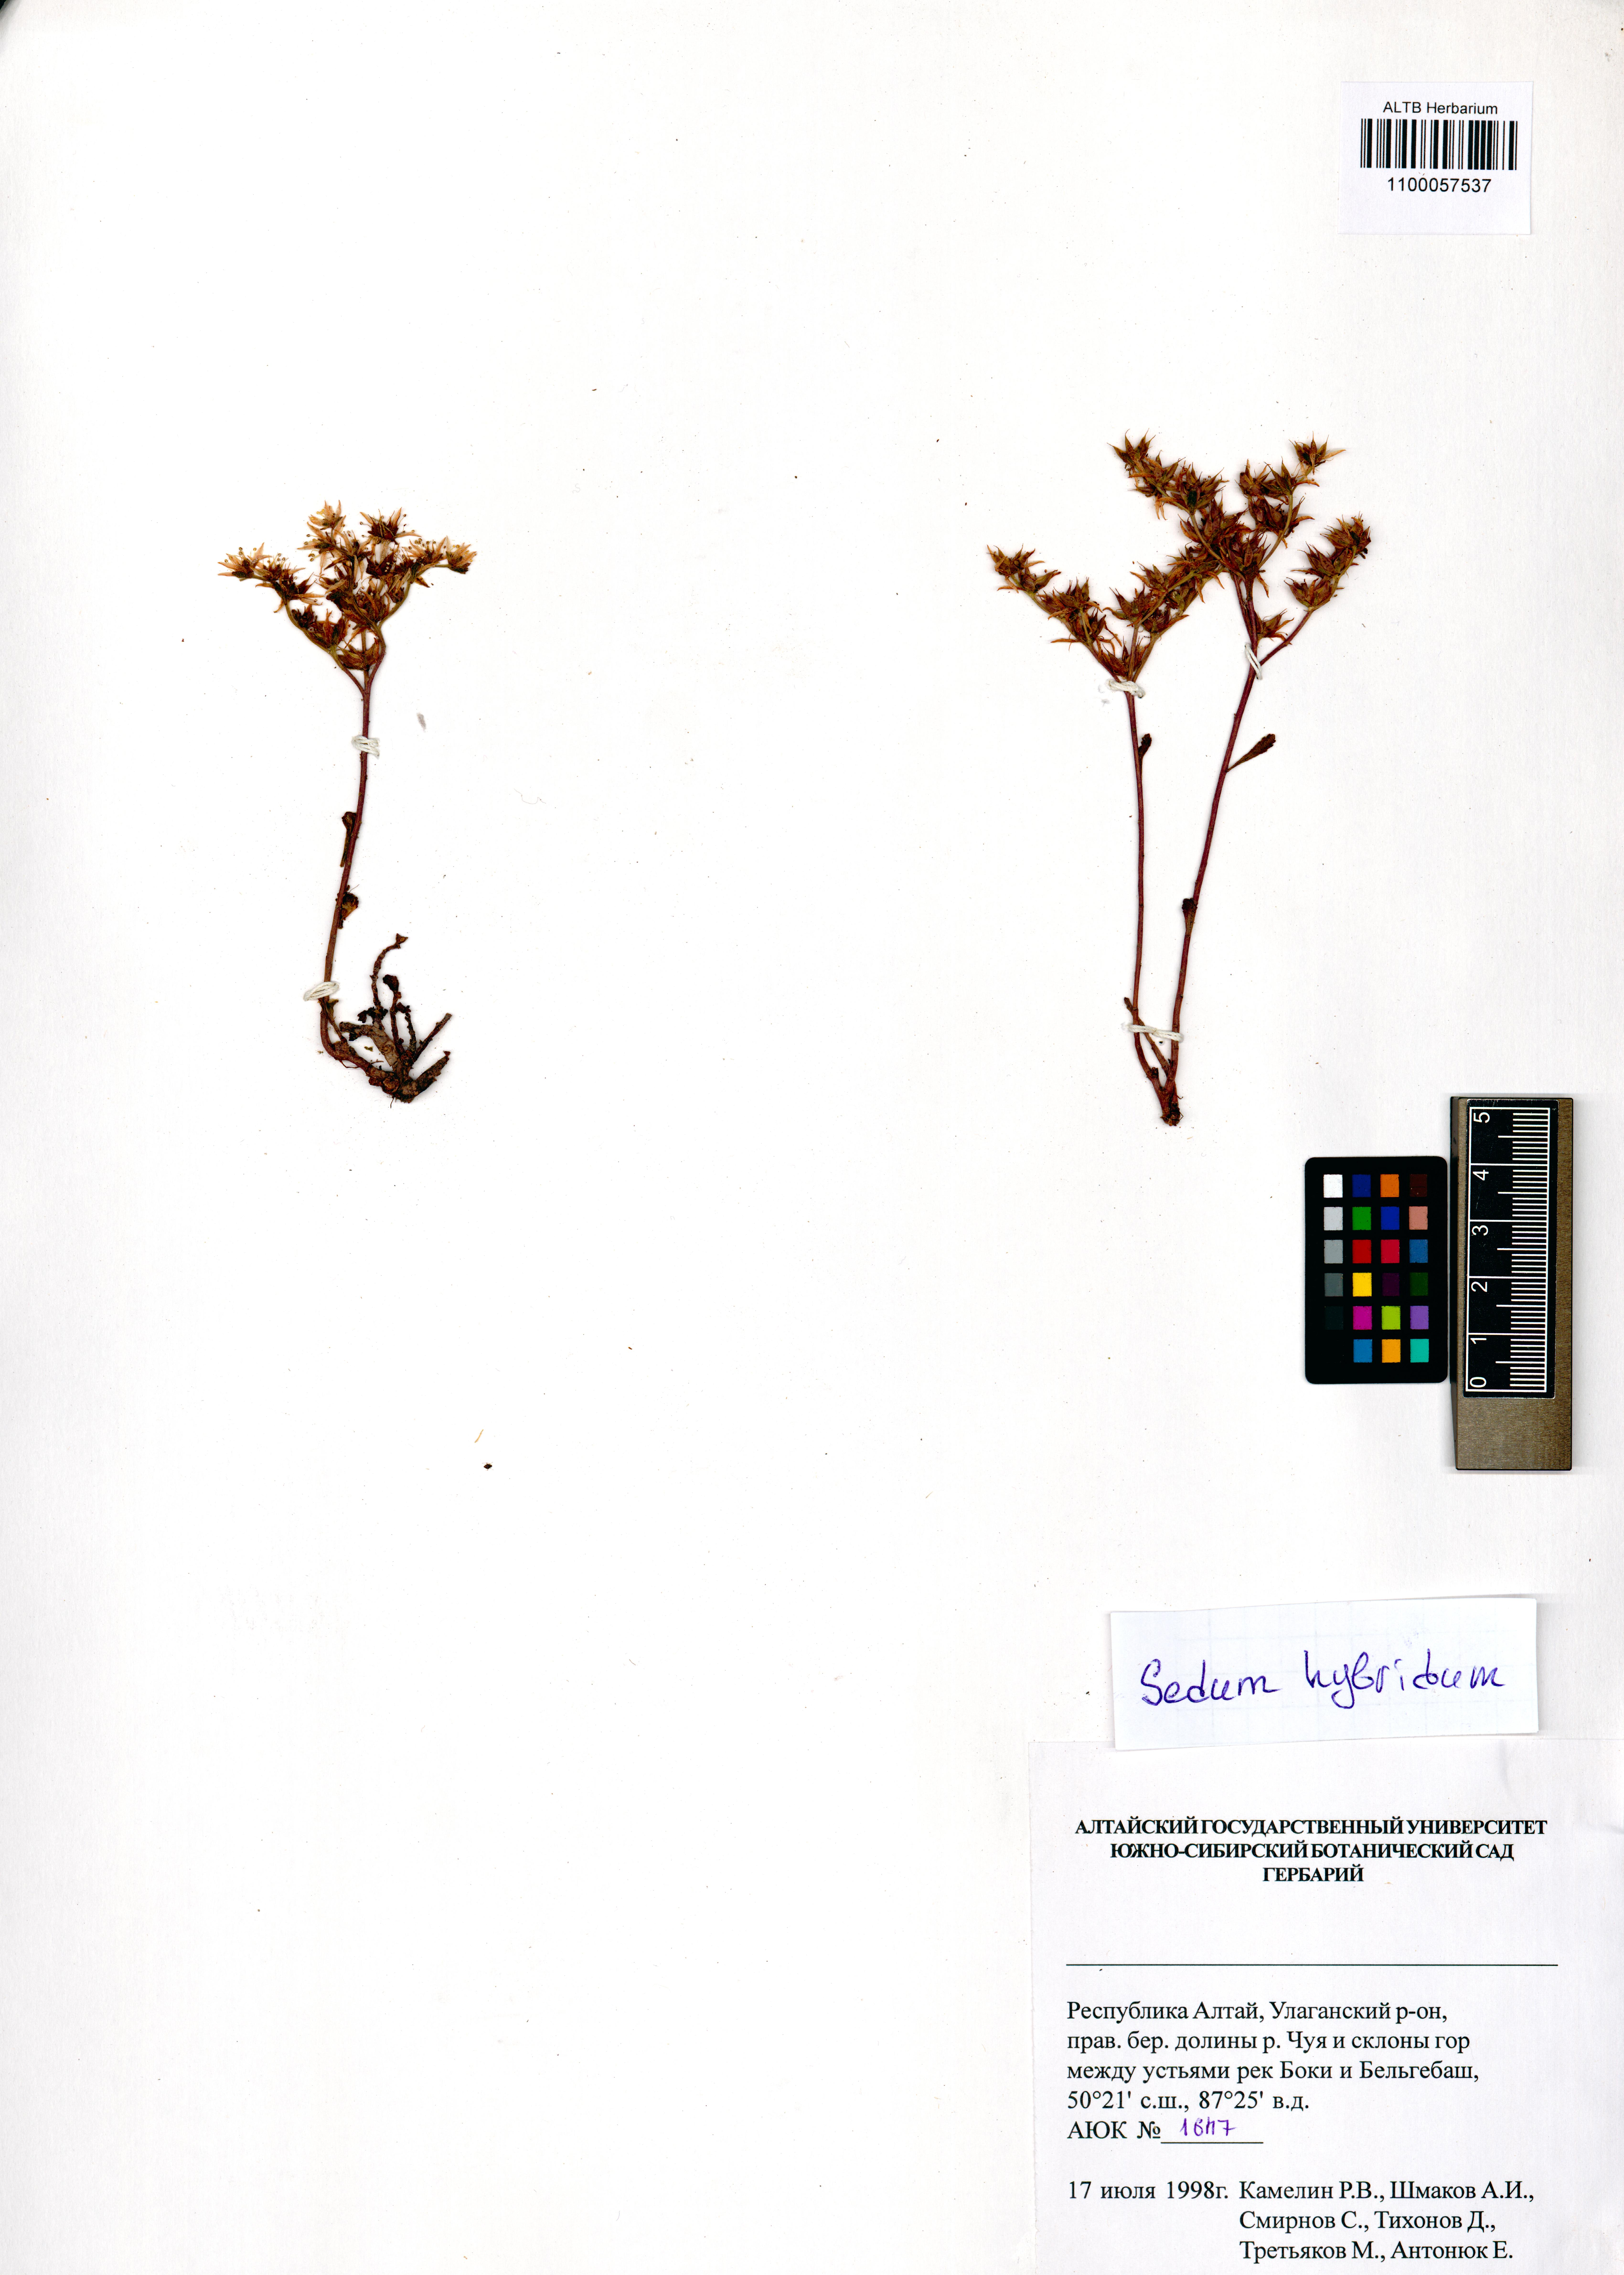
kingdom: Plantae
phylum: Tracheophyta
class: Magnoliopsida
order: Saxifragales
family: Crassulaceae
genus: Phedimus
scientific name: Phedimus hybridus
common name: Hybrid stonecrop
